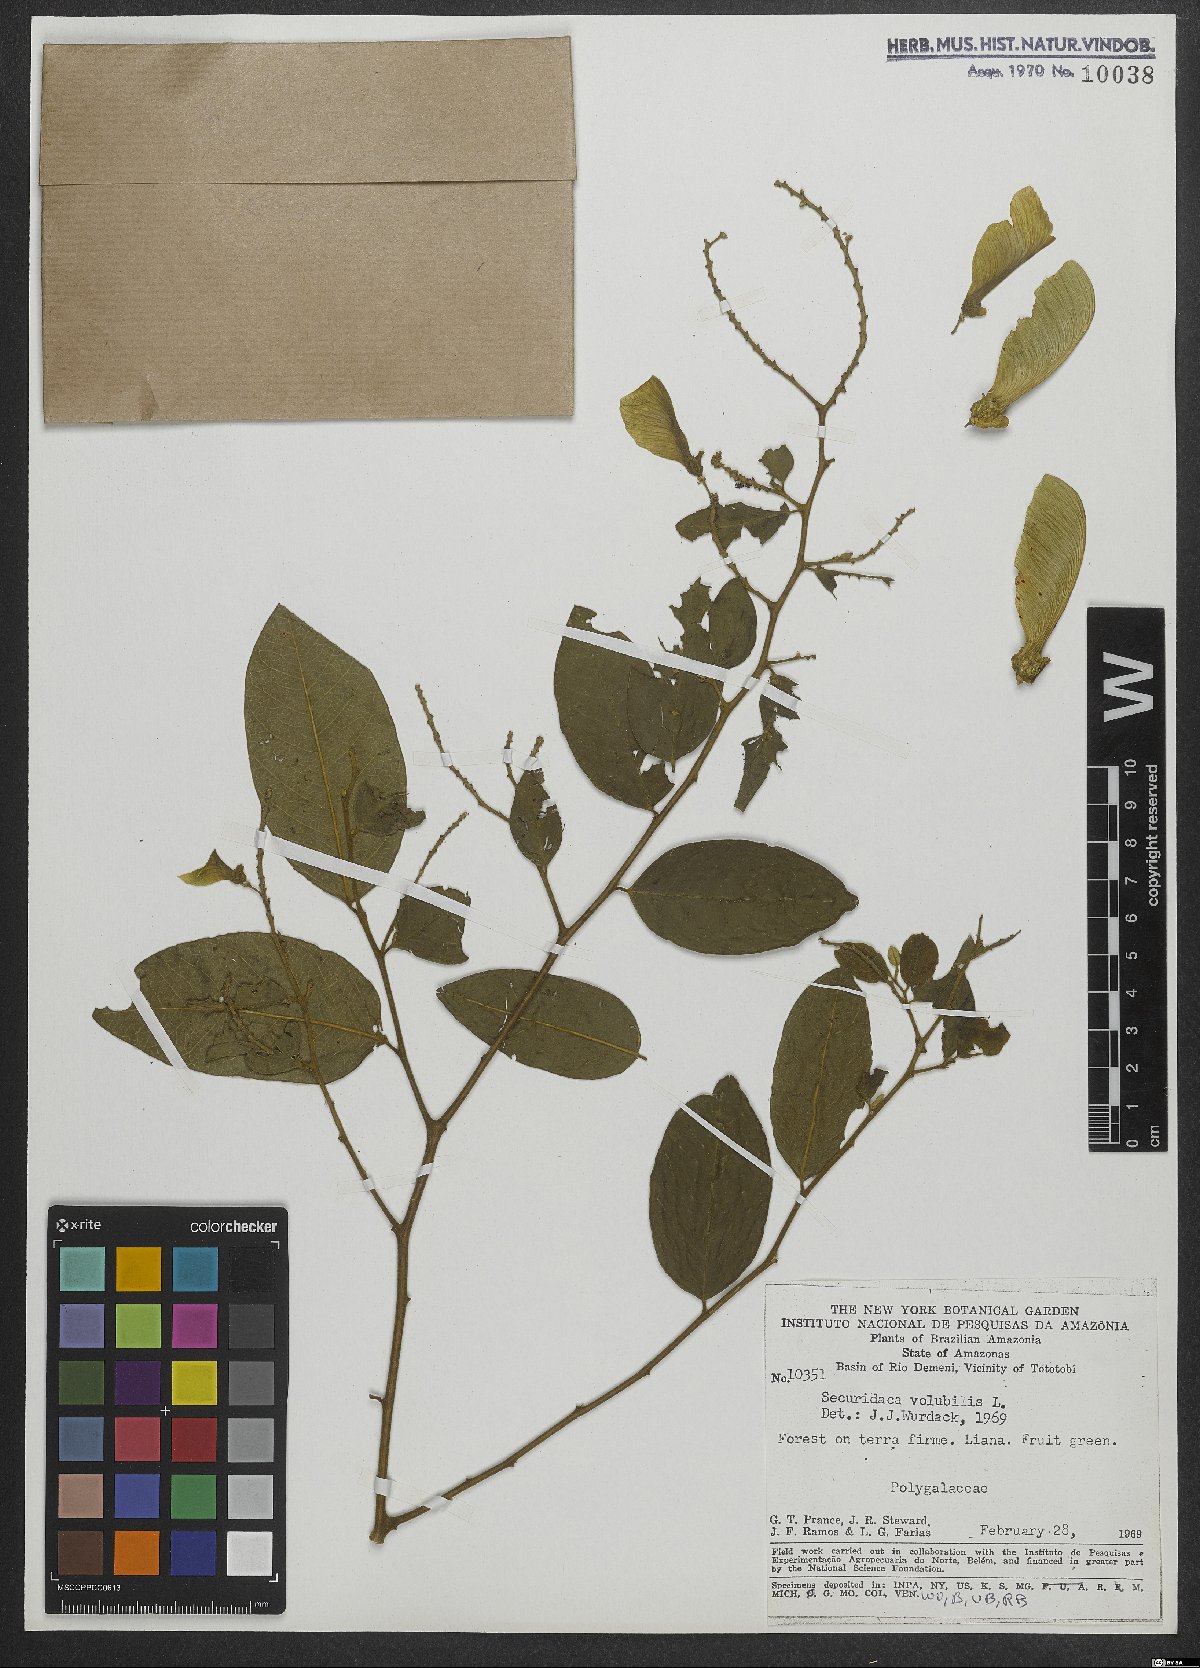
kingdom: Plantae
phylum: Tracheophyta
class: Magnoliopsida
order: Fabales
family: Polygalaceae
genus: Securidaca
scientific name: Securidaca
